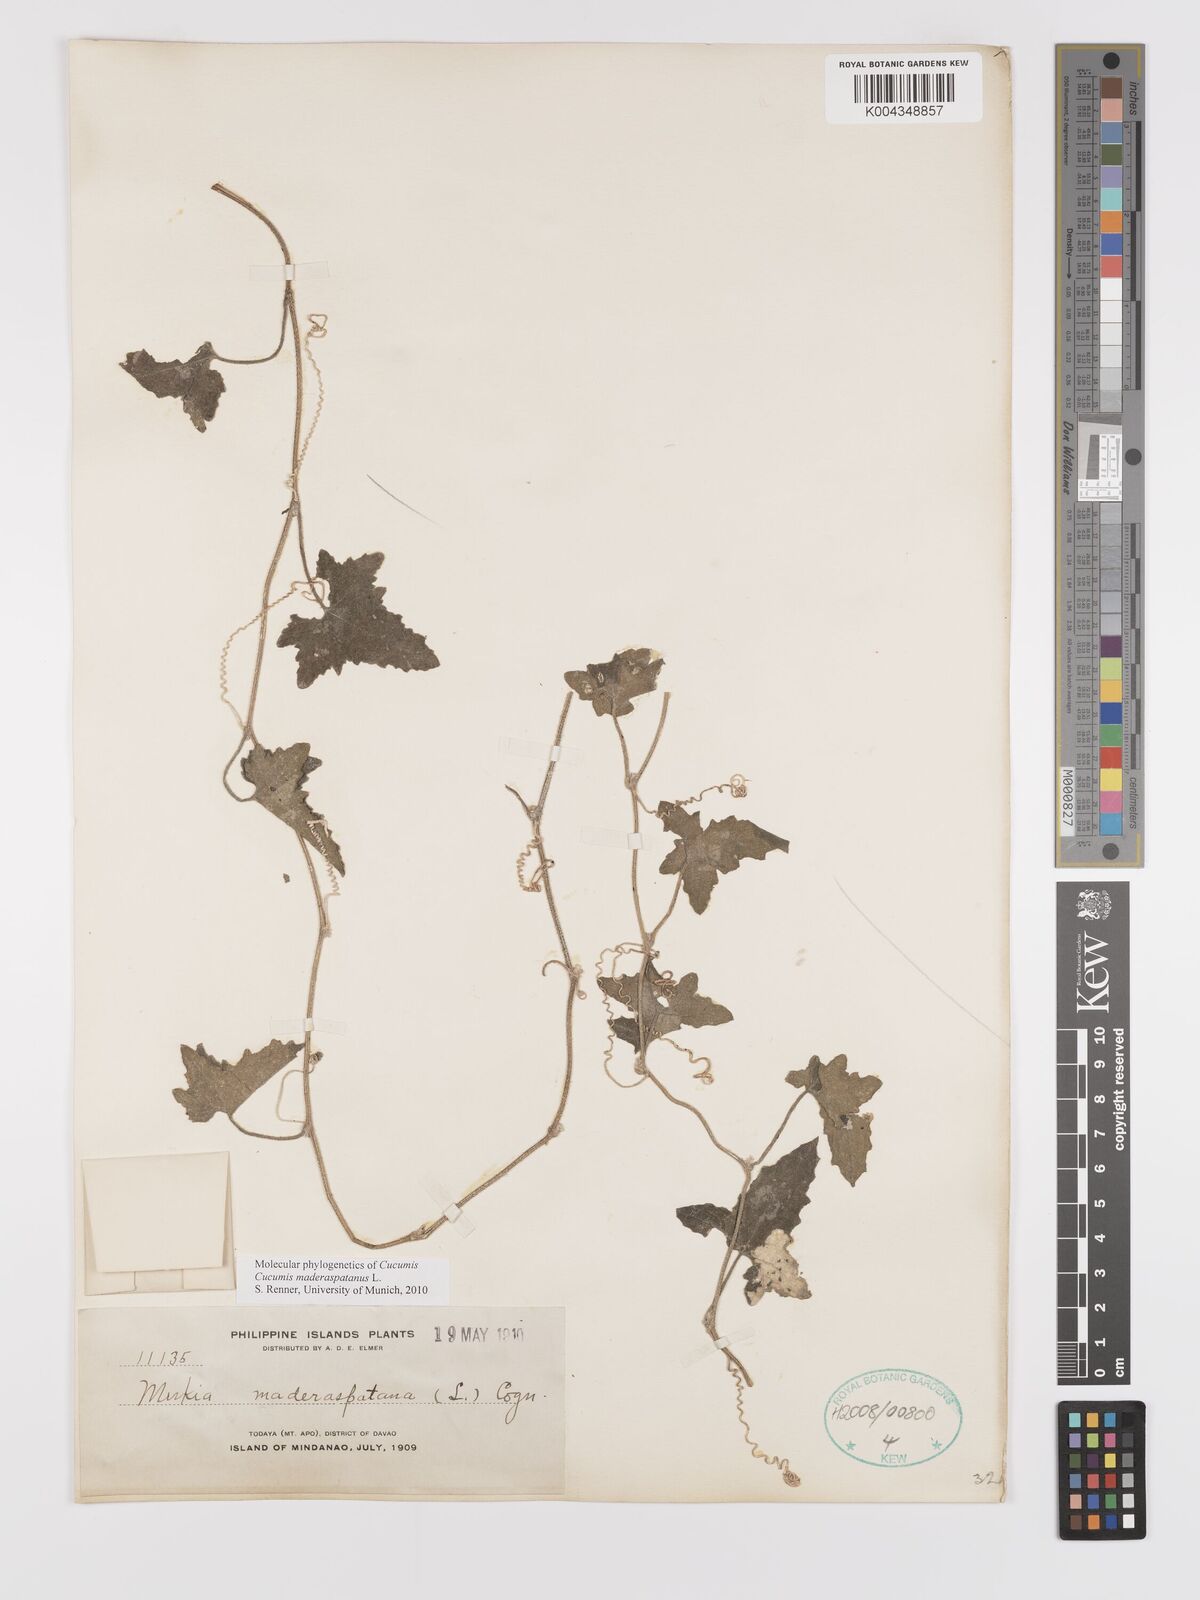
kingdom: Plantae
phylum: Tracheophyta
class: Magnoliopsida
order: Cucurbitales
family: Cucurbitaceae
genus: Cucumis
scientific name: Cucumis maderaspatanus
